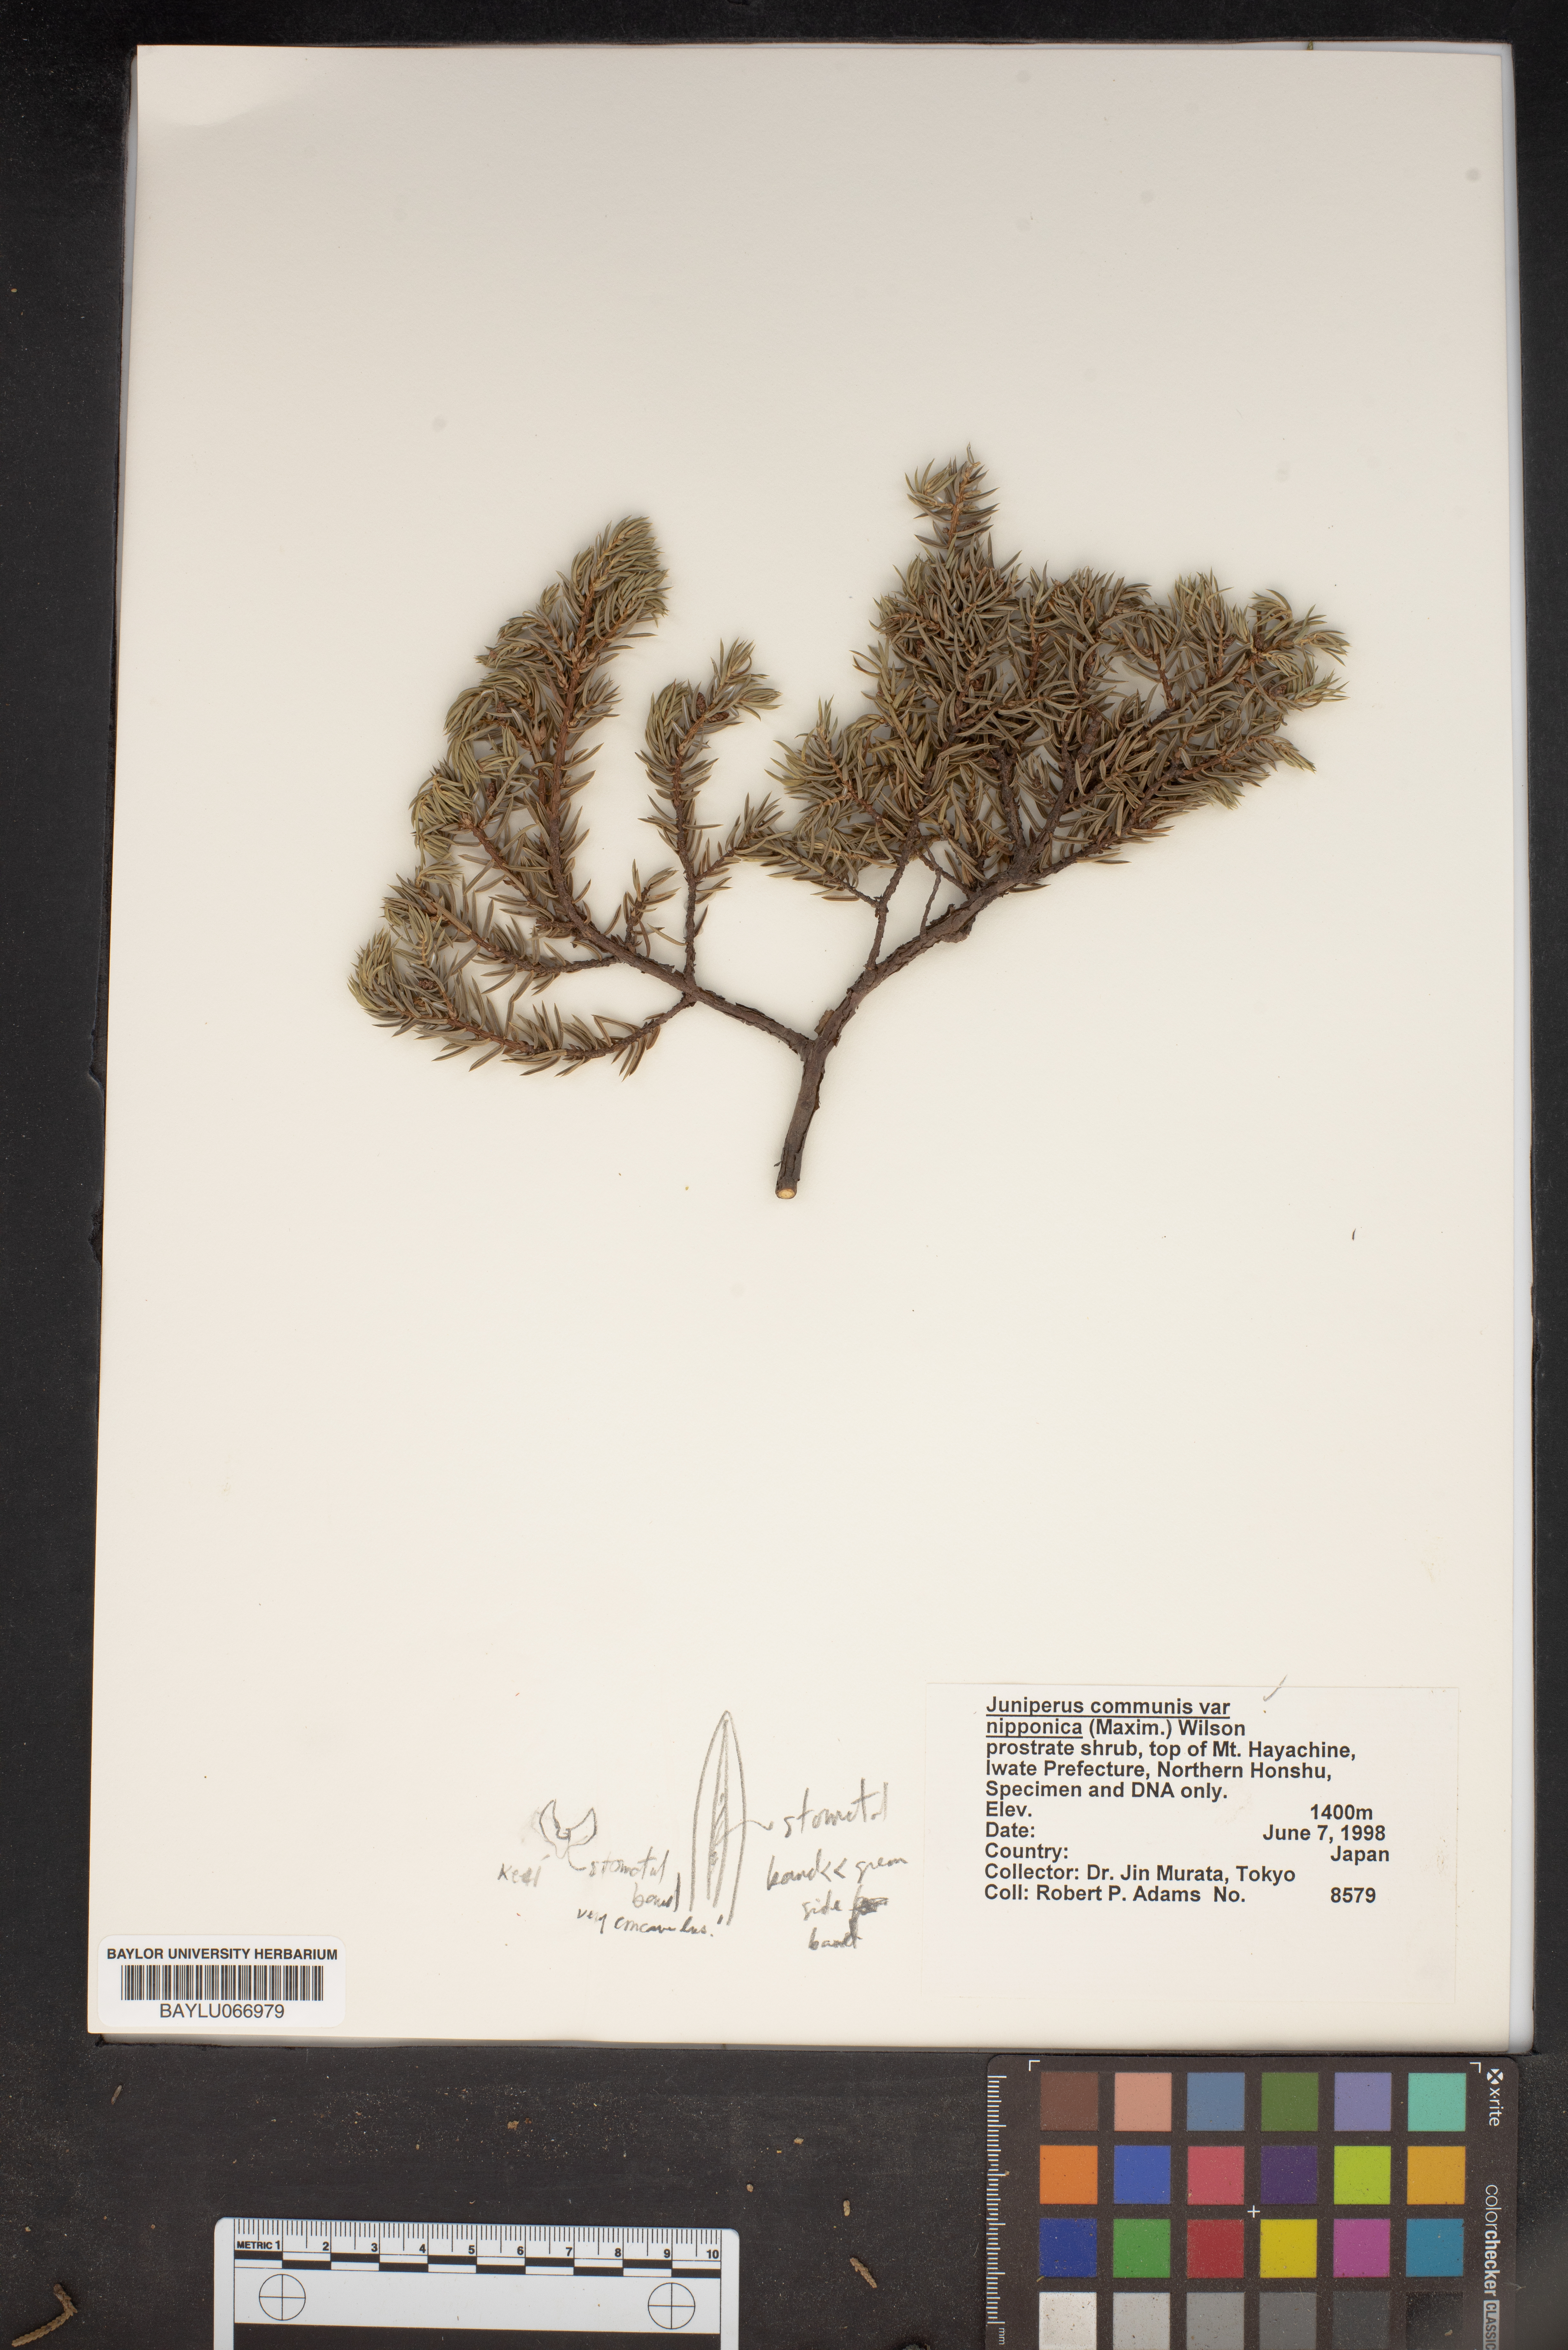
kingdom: Plantae
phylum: Tracheophyta
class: Pinopsida
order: Pinales
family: Cupressaceae
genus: Juniperus
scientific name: Juniperus communis
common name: Common juniper
